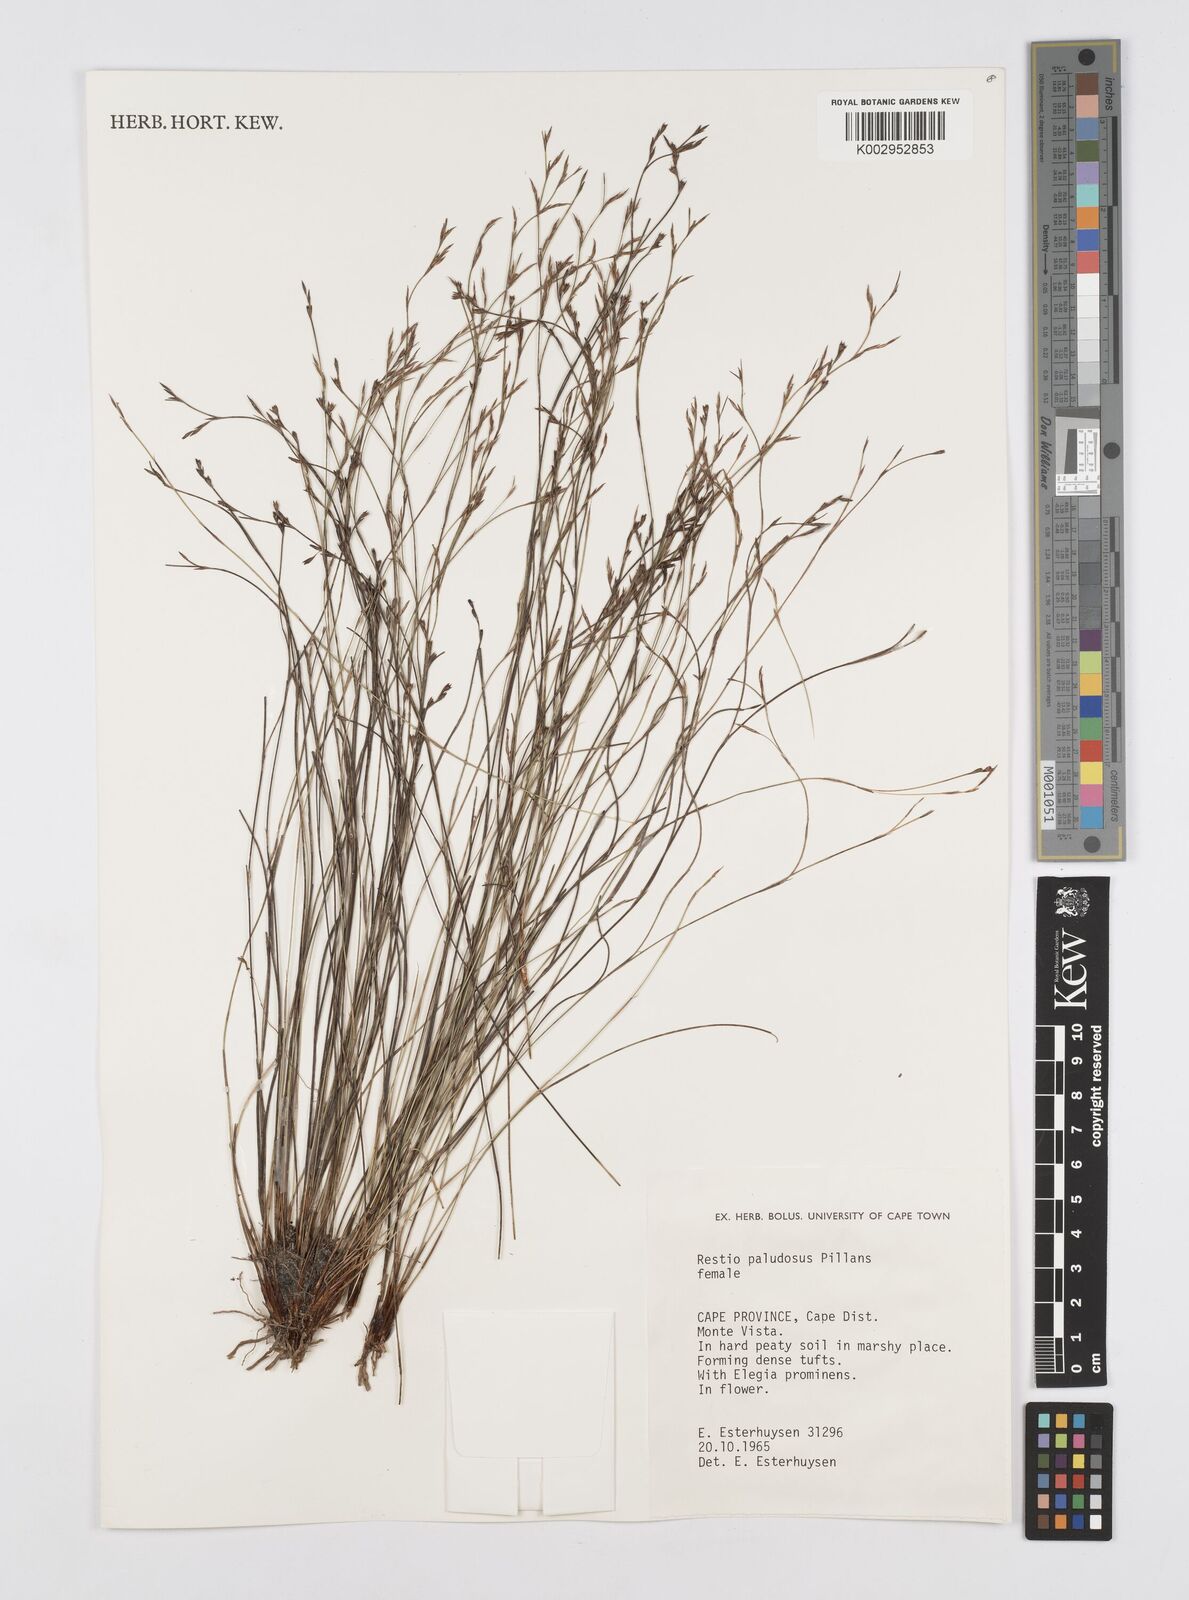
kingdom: Plantae
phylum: Tracheophyta
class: Liliopsida
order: Poales
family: Restionaceae
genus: Restio
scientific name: Restio paludosus
